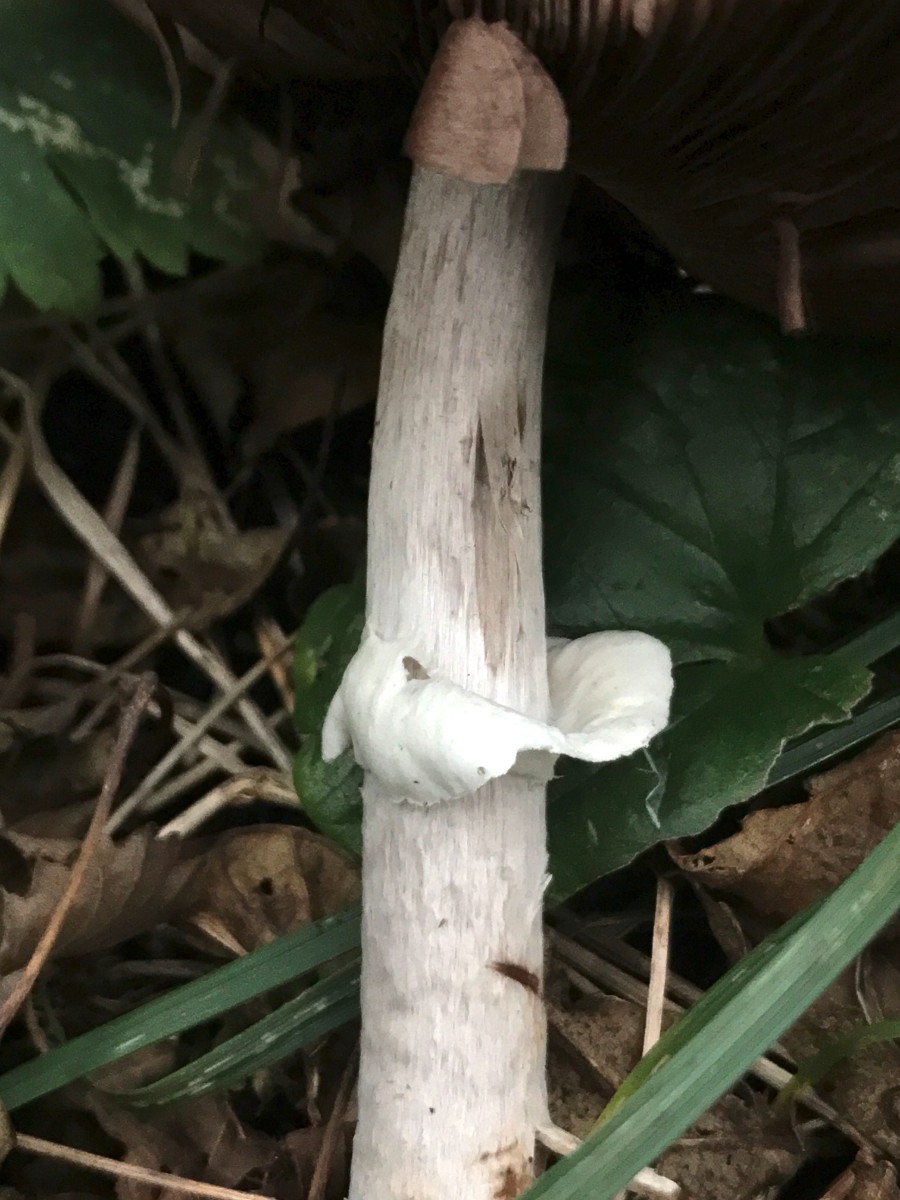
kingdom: Fungi
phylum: Basidiomycota
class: Agaricomycetes
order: Agaricales
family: Agaricaceae
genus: Agaricus
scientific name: Agaricus impudicus
